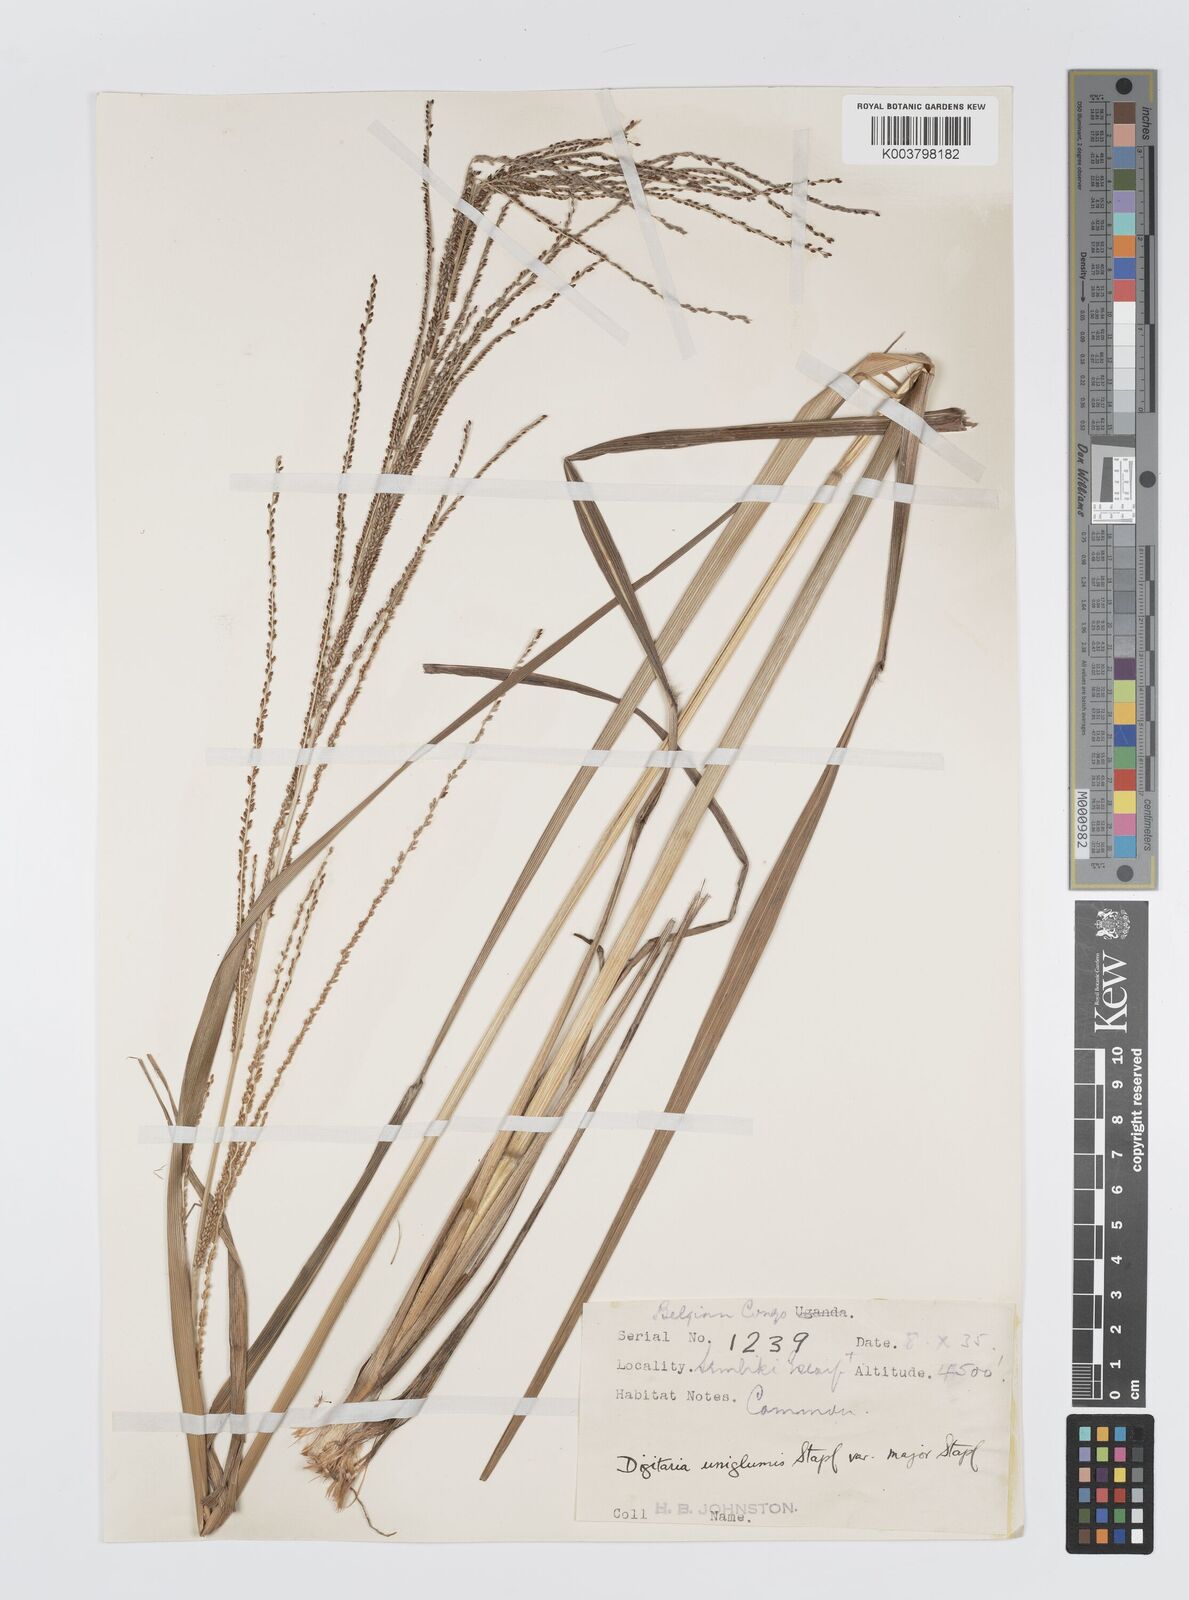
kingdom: Plantae
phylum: Tracheophyta
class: Liliopsida
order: Poales
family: Poaceae
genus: Digitaria
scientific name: Digitaria diagonalis
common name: Brown-seed finger grass
